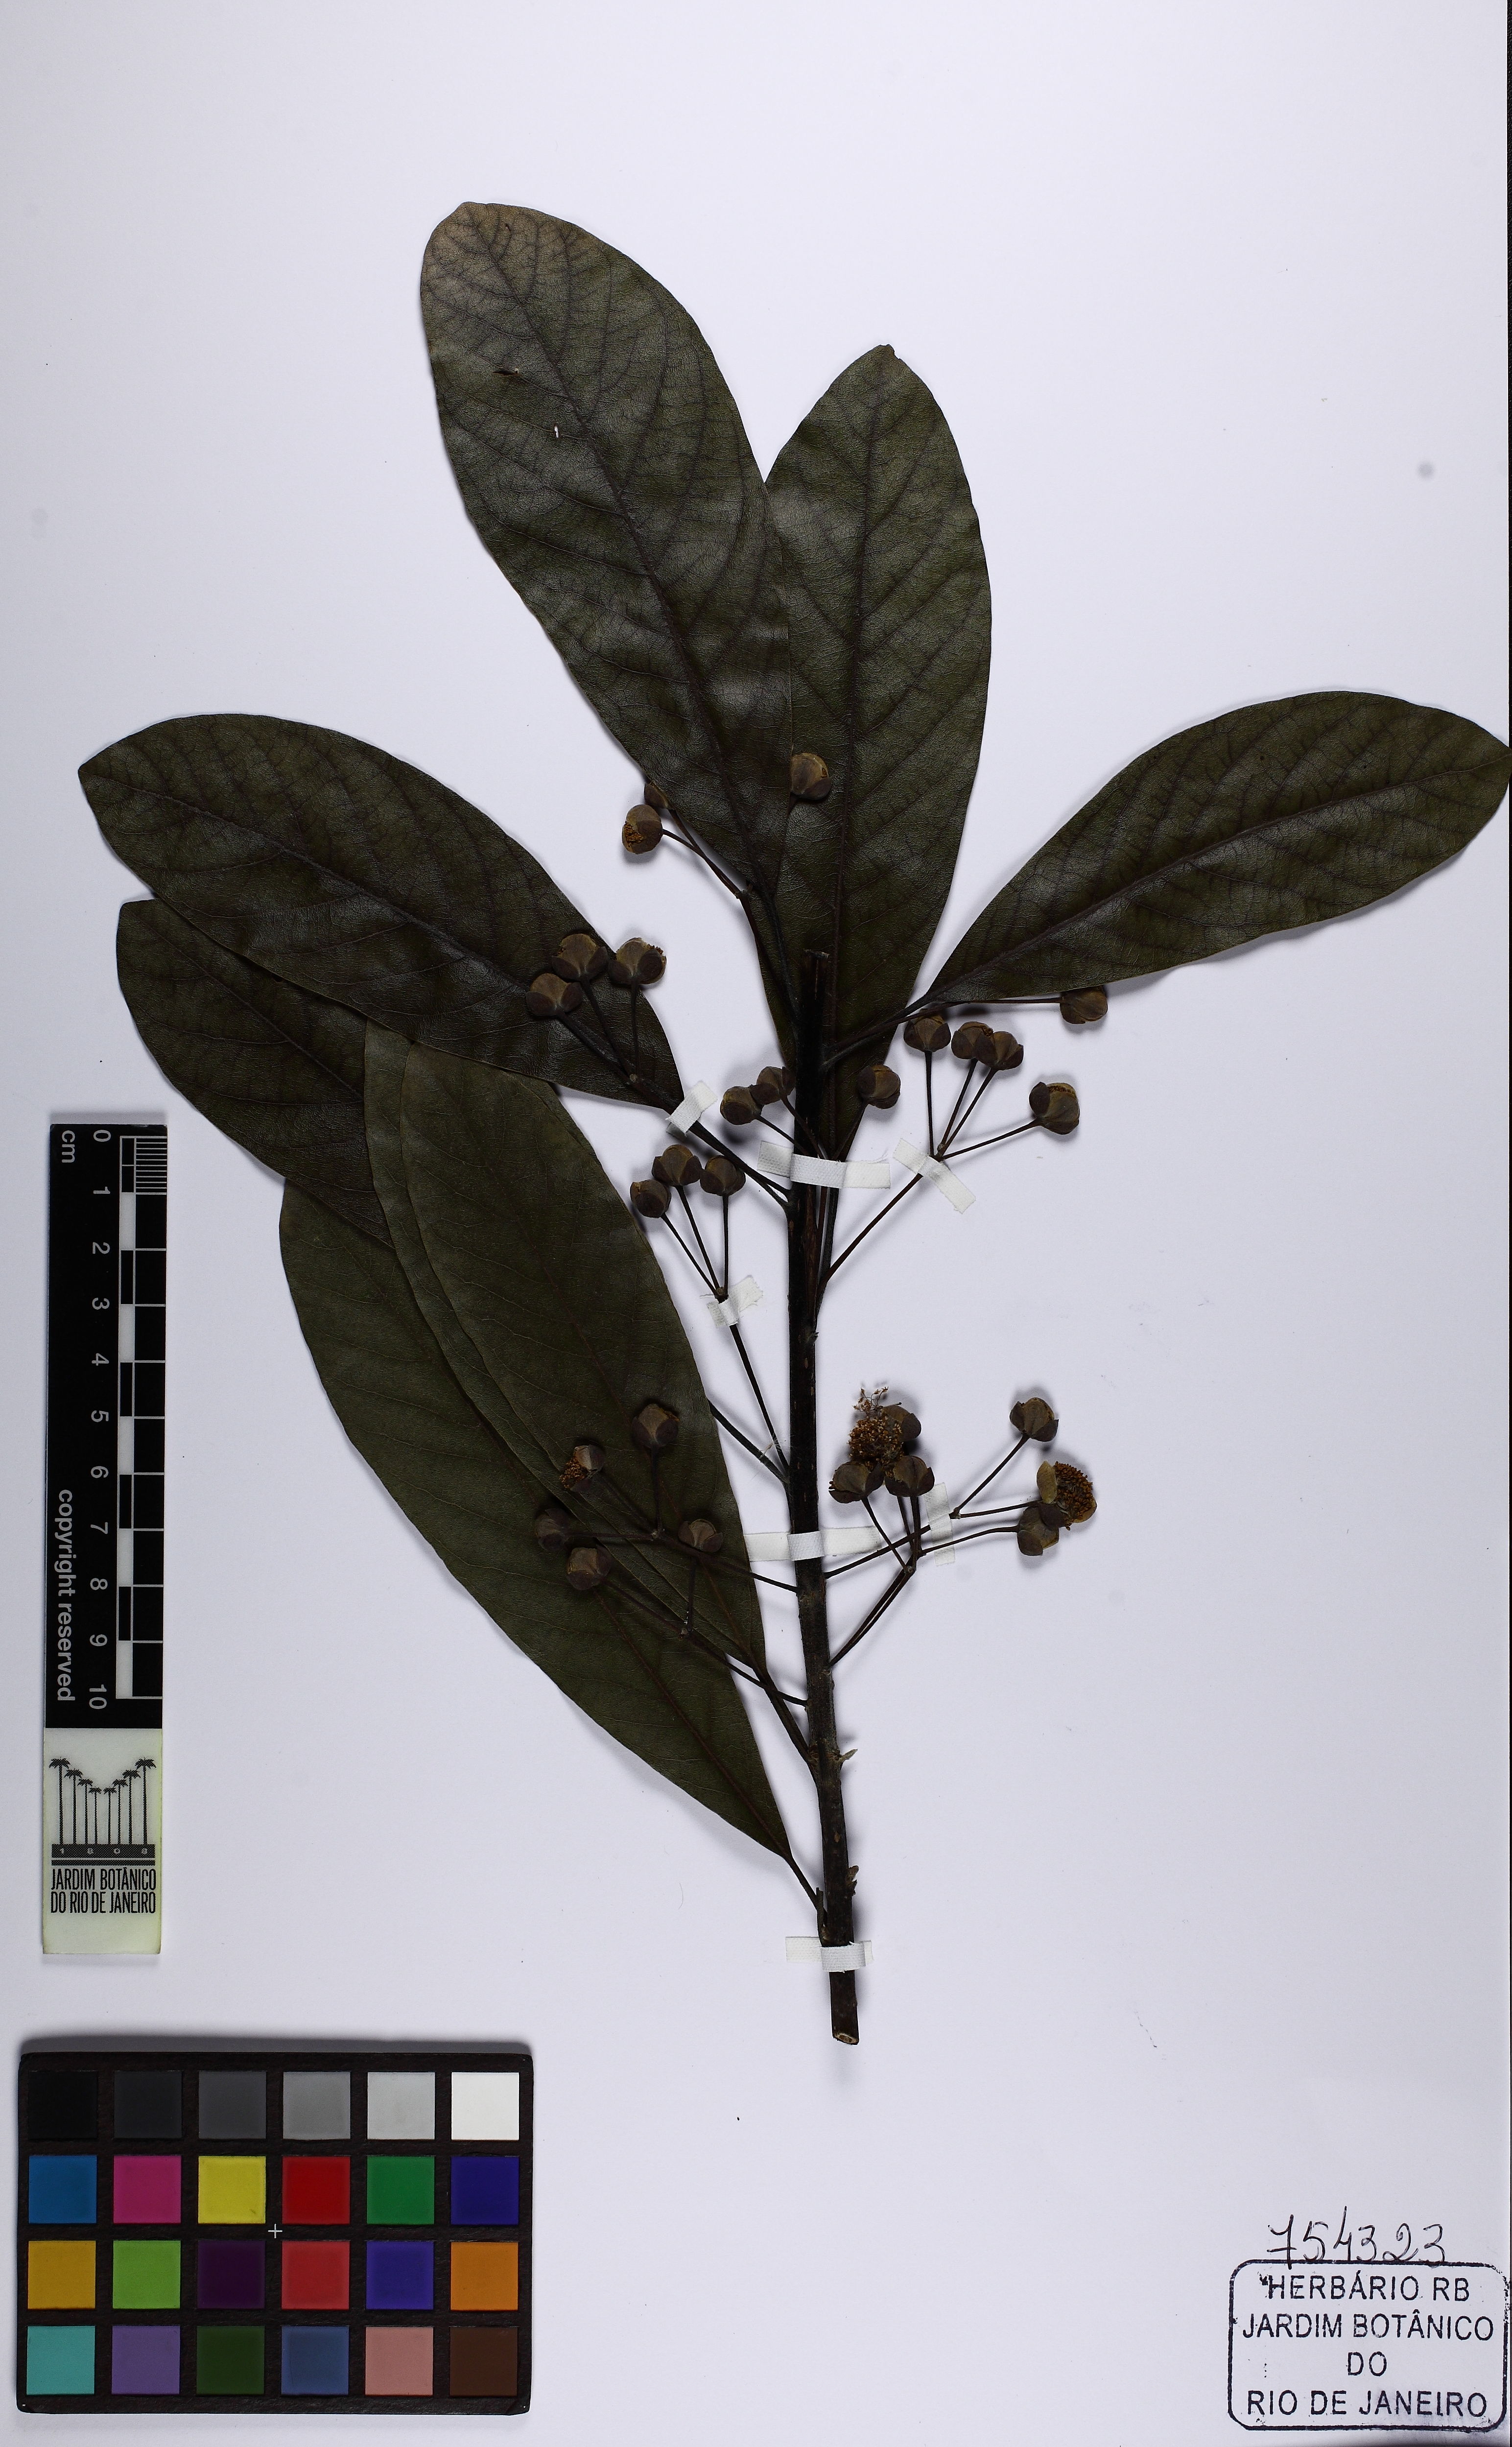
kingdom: Plantae
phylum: Tracheophyta
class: Magnoliopsida
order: Laurales
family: Lauraceae
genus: Litsea
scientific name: Litsea glutinosa
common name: Indian-laurel
